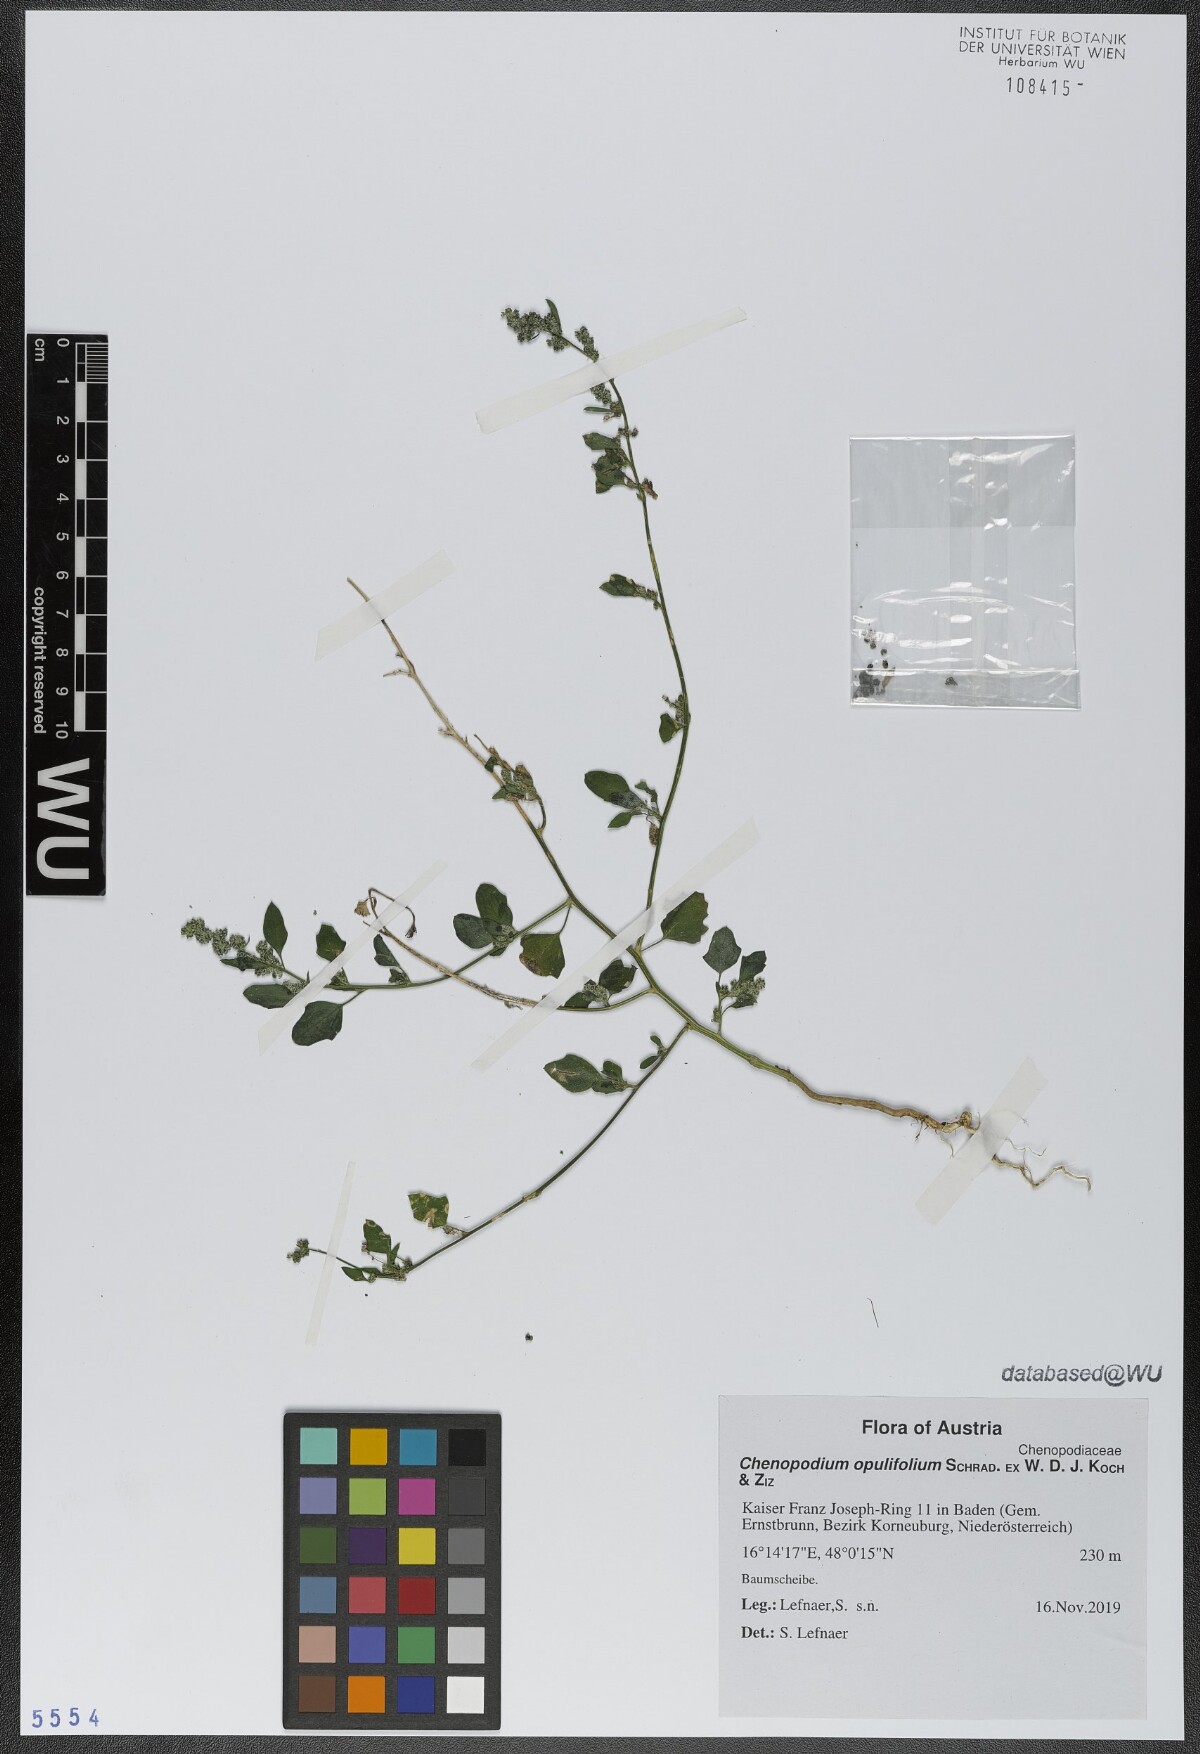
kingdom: Plantae
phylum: Tracheophyta
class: Magnoliopsida
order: Caryophyllales
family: Amaranthaceae
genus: Chenopodium
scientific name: Chenopodium opulifolium
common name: Grey goosefoot
